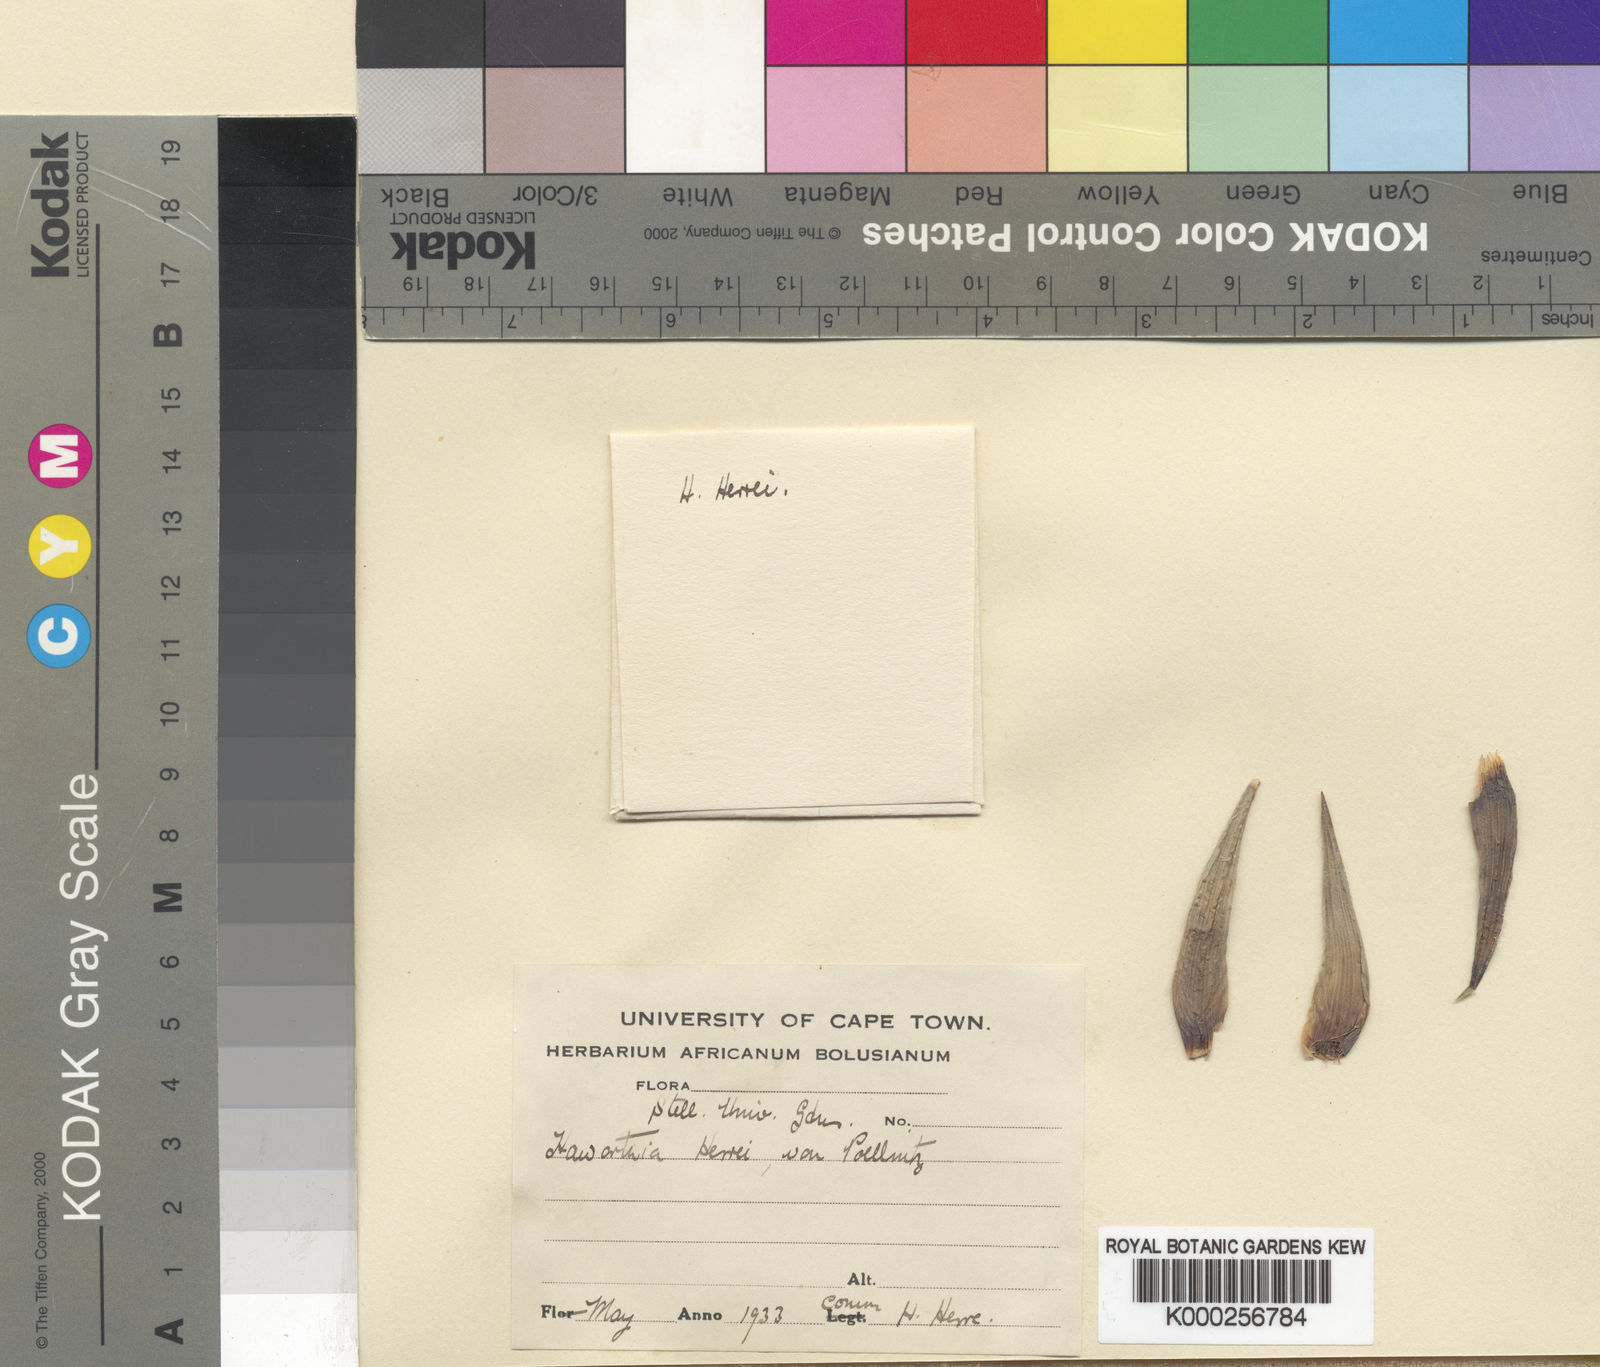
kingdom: Plantae
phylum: Tracheophyta
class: Liliopsida
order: Asparagales
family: Asphodelaceae
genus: Haworthiopsis
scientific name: Haworthiopsis glauca
